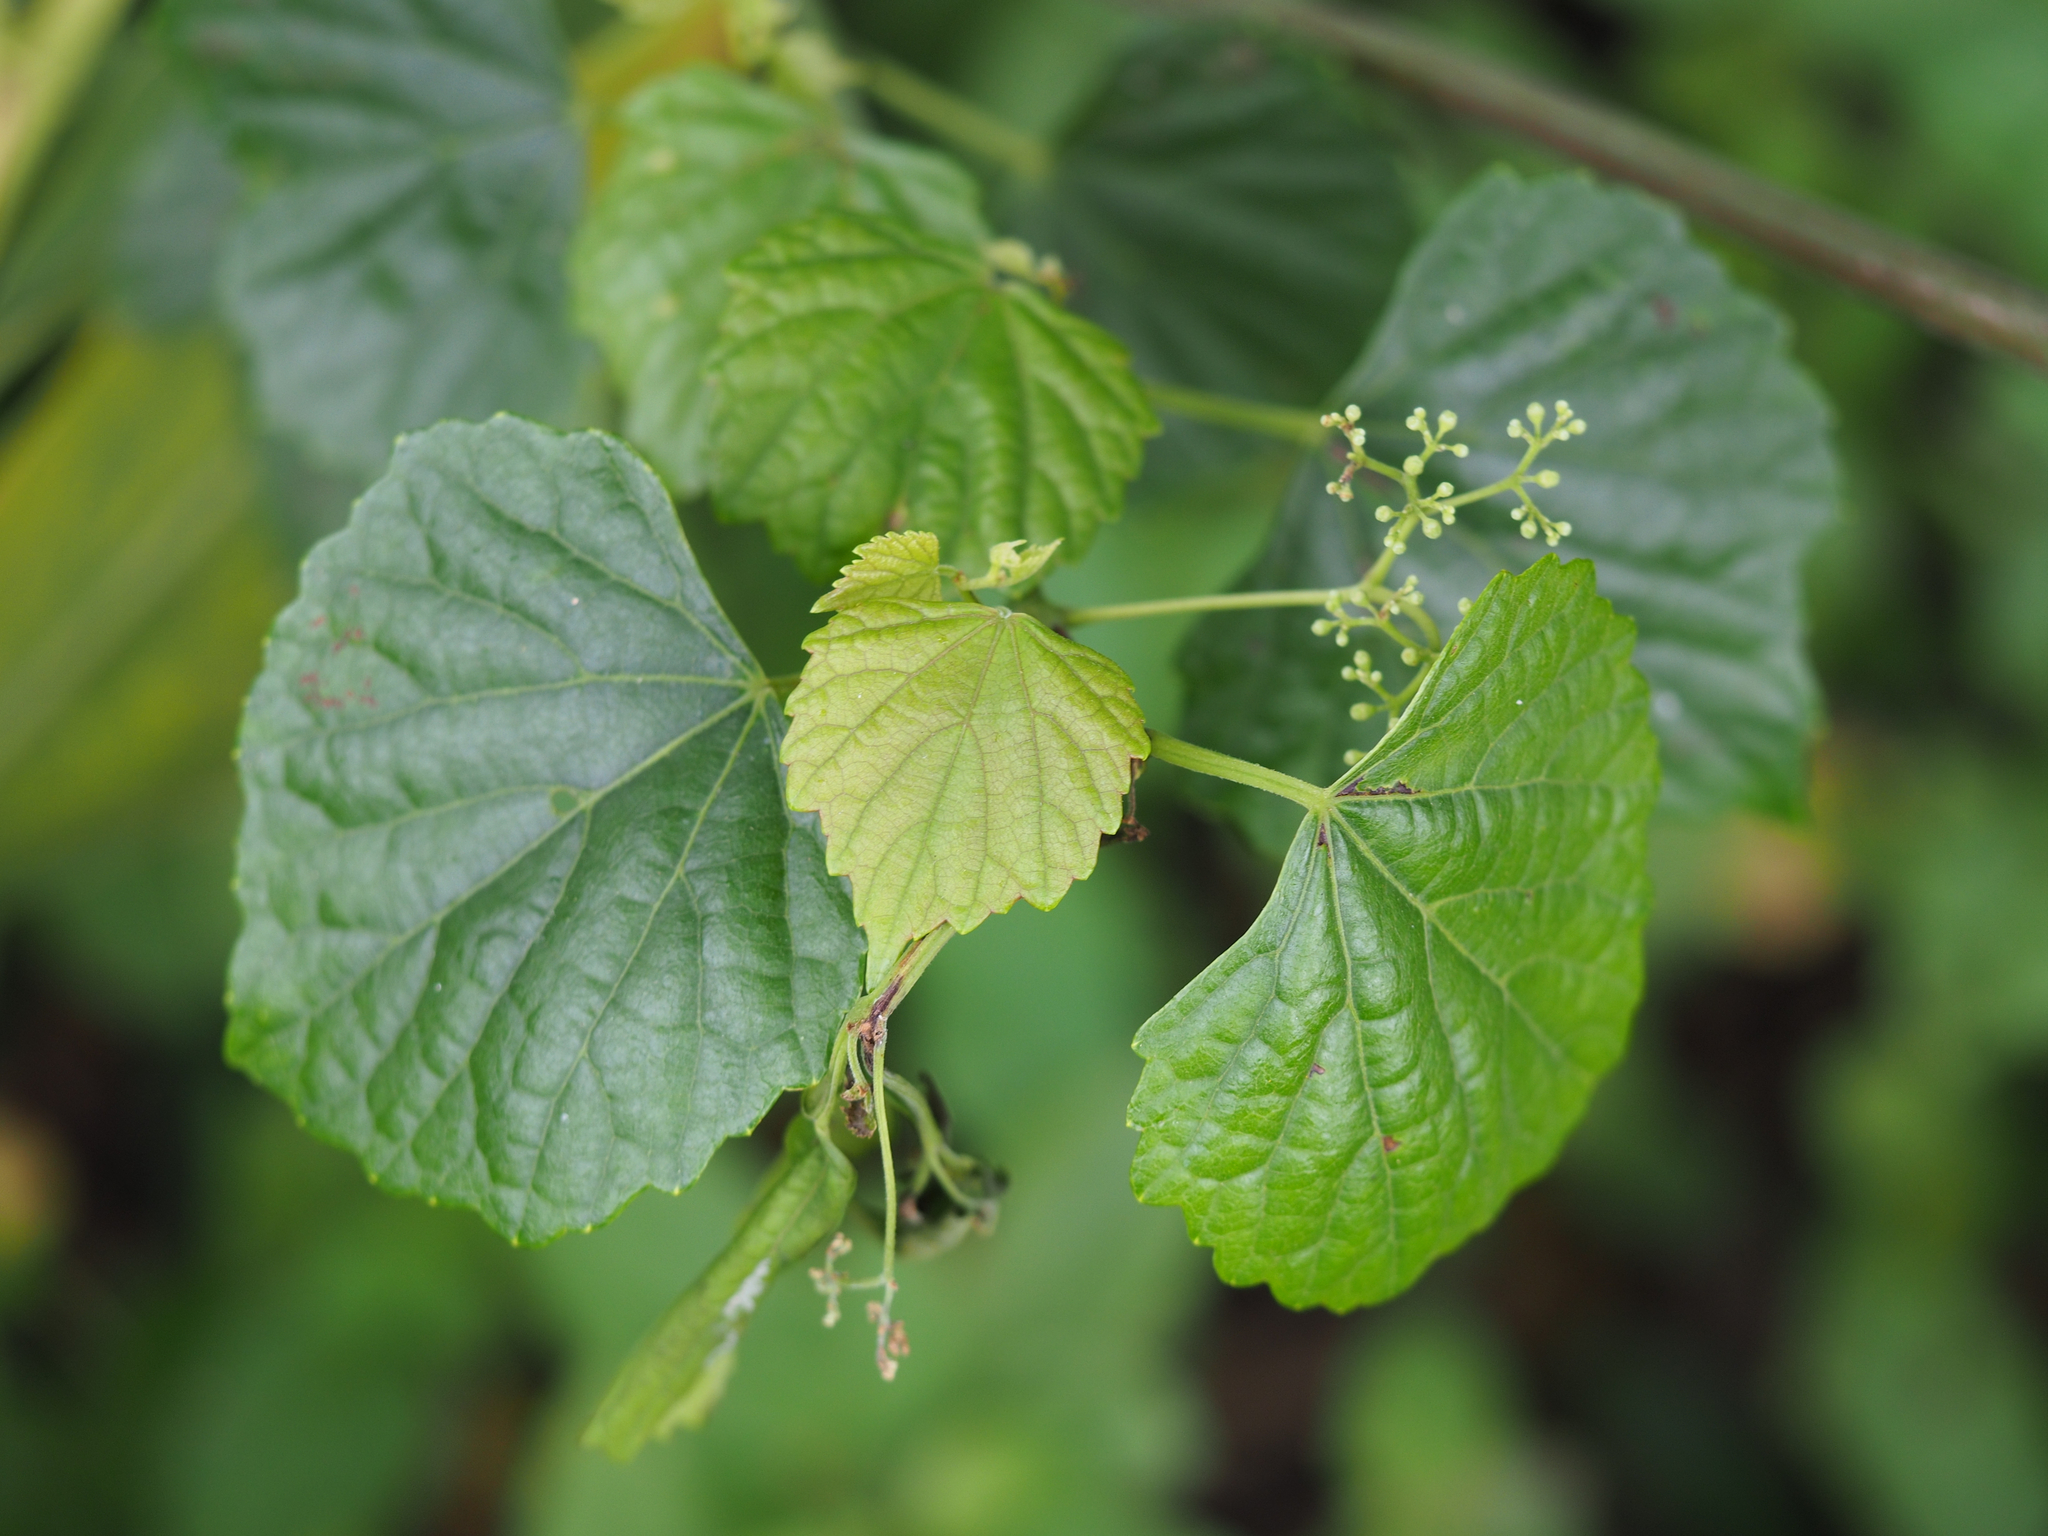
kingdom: Plantae
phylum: Tracheophyta
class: Magnoliopsida
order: Vitales
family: Vitaceae
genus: Ampelopsis
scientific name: Ampelopsis glandulosa
